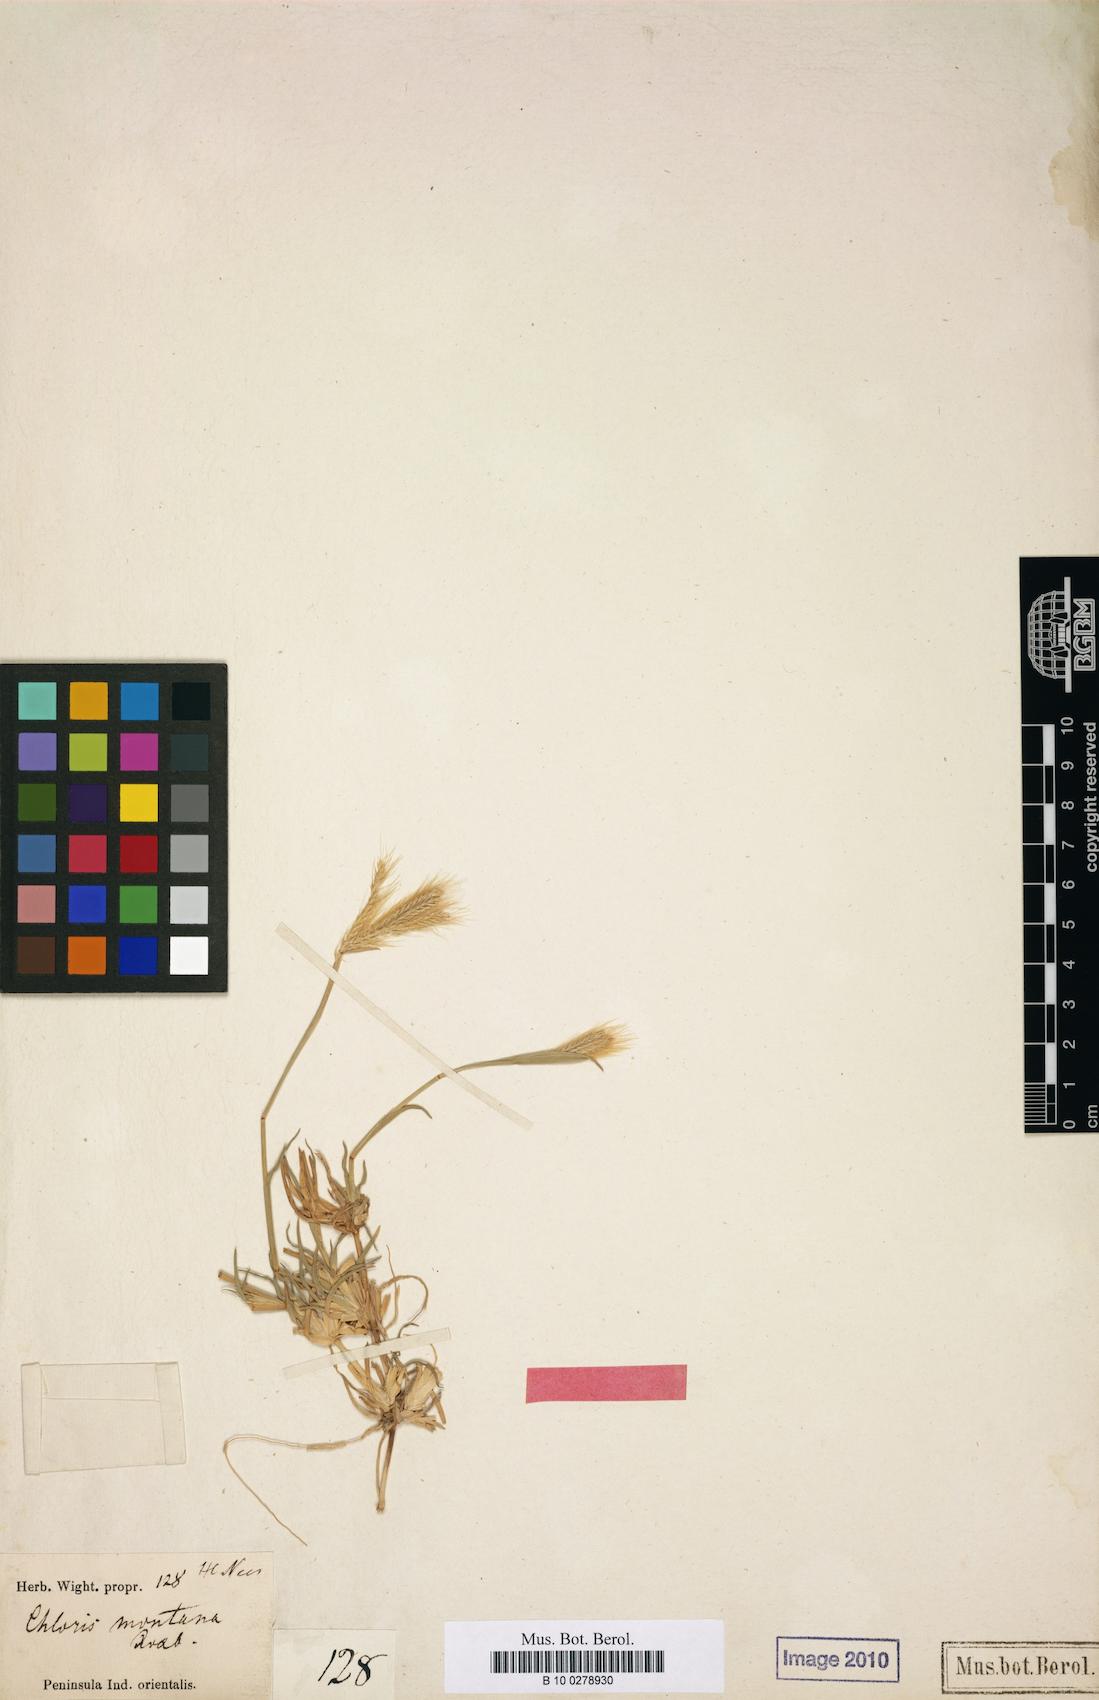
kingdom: Plantae
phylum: Tracheophyta
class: Liliopsida
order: Poales
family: Poaceae
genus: Chloris
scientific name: Chloris montana
